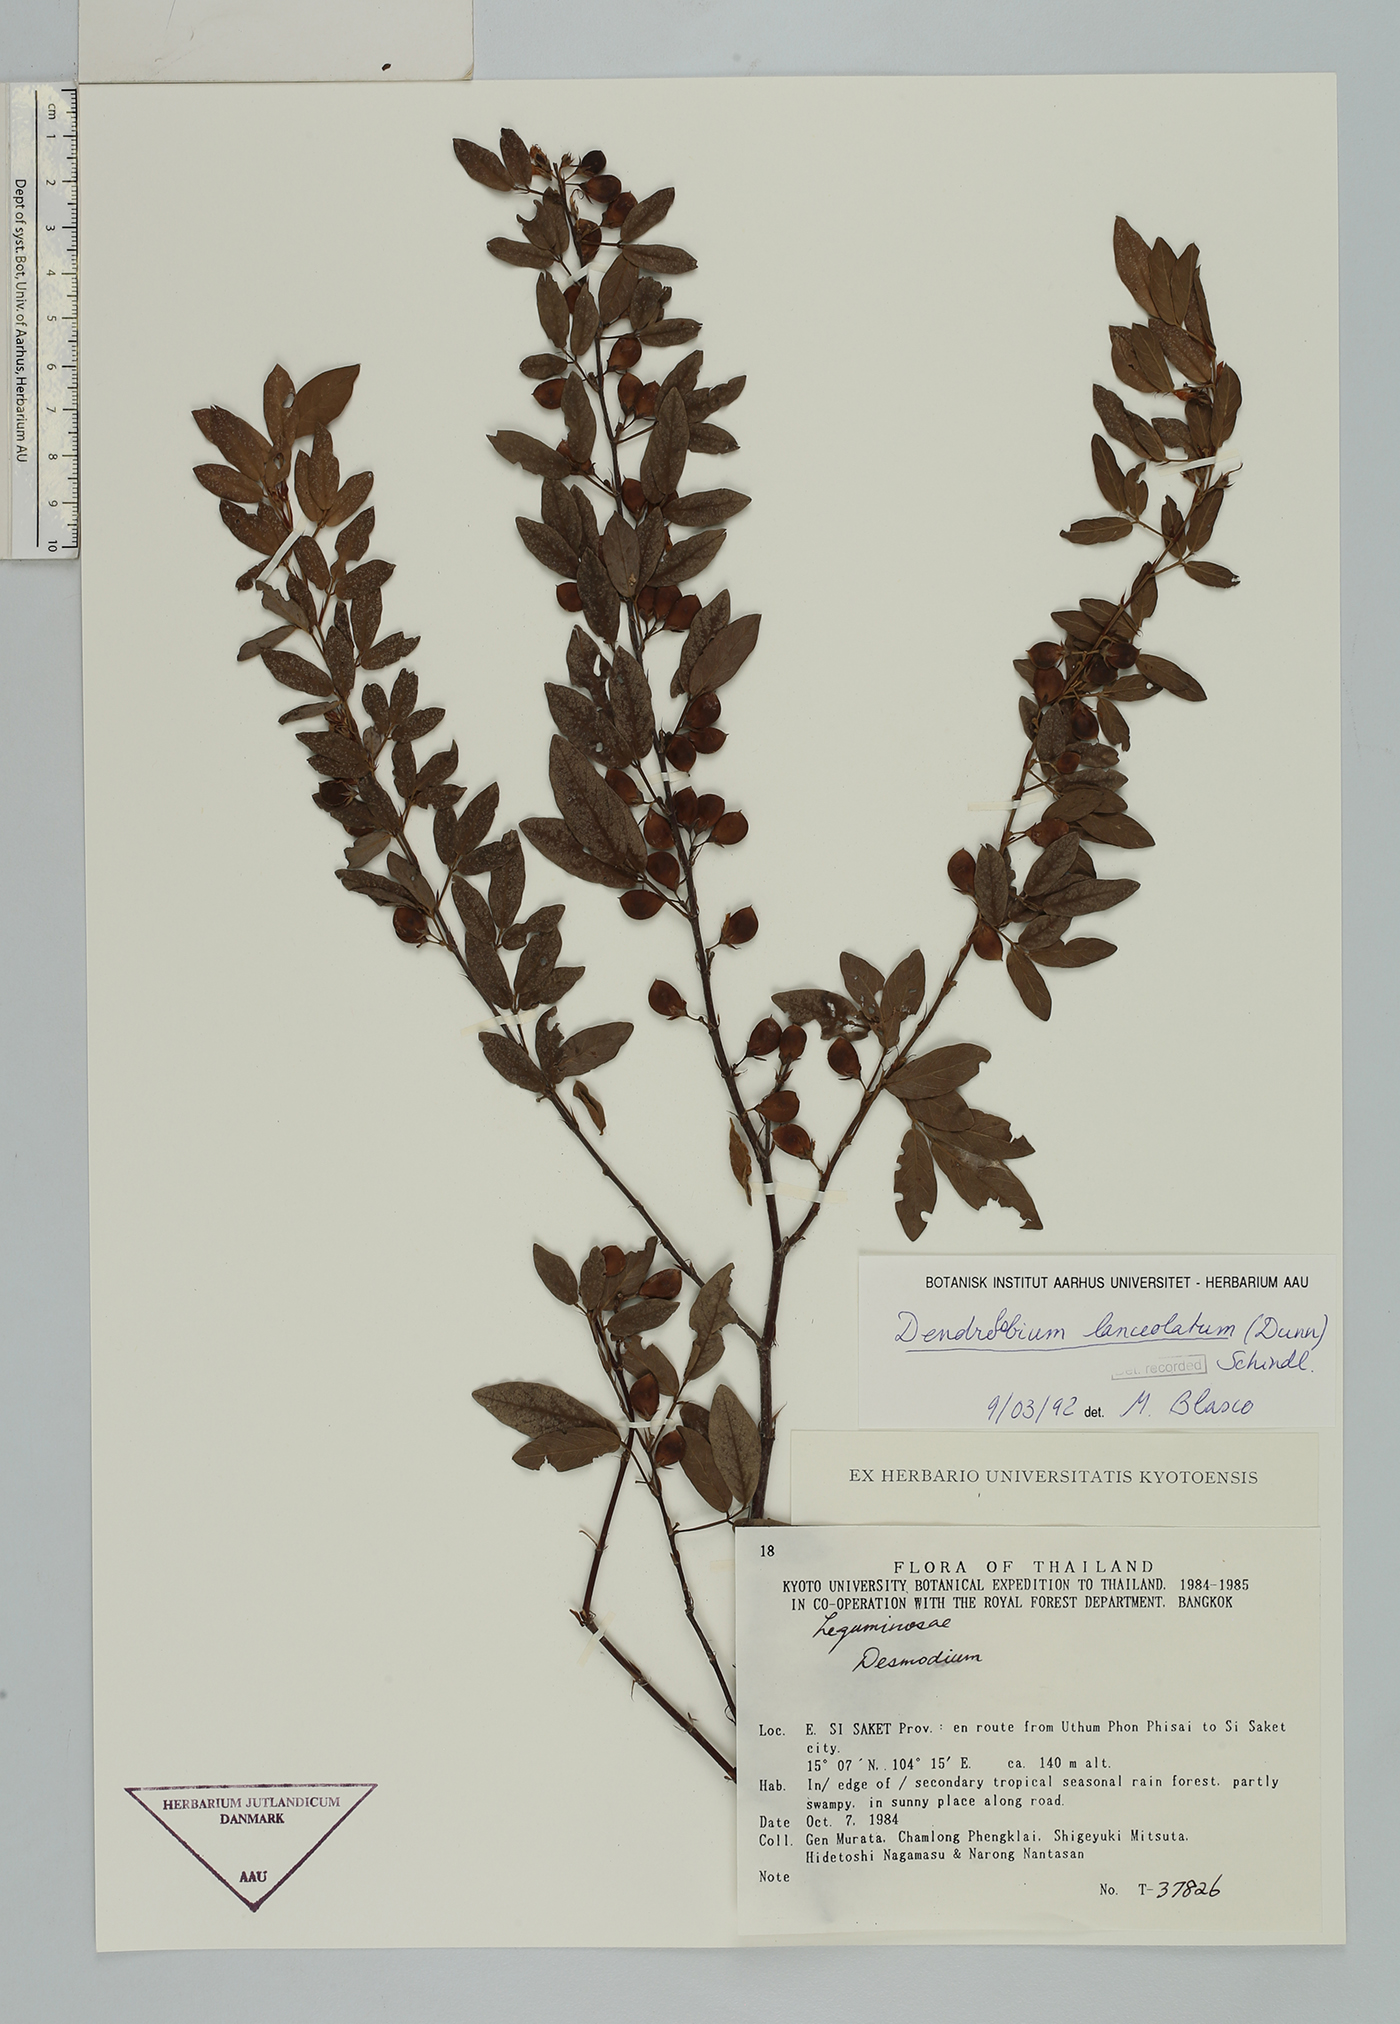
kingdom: Plantae
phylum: Tracheophyta
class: Magnoliopsida
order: Fabales
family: Fabaceae
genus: Dendrolobium
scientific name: Dendrolobium lanceolatum
